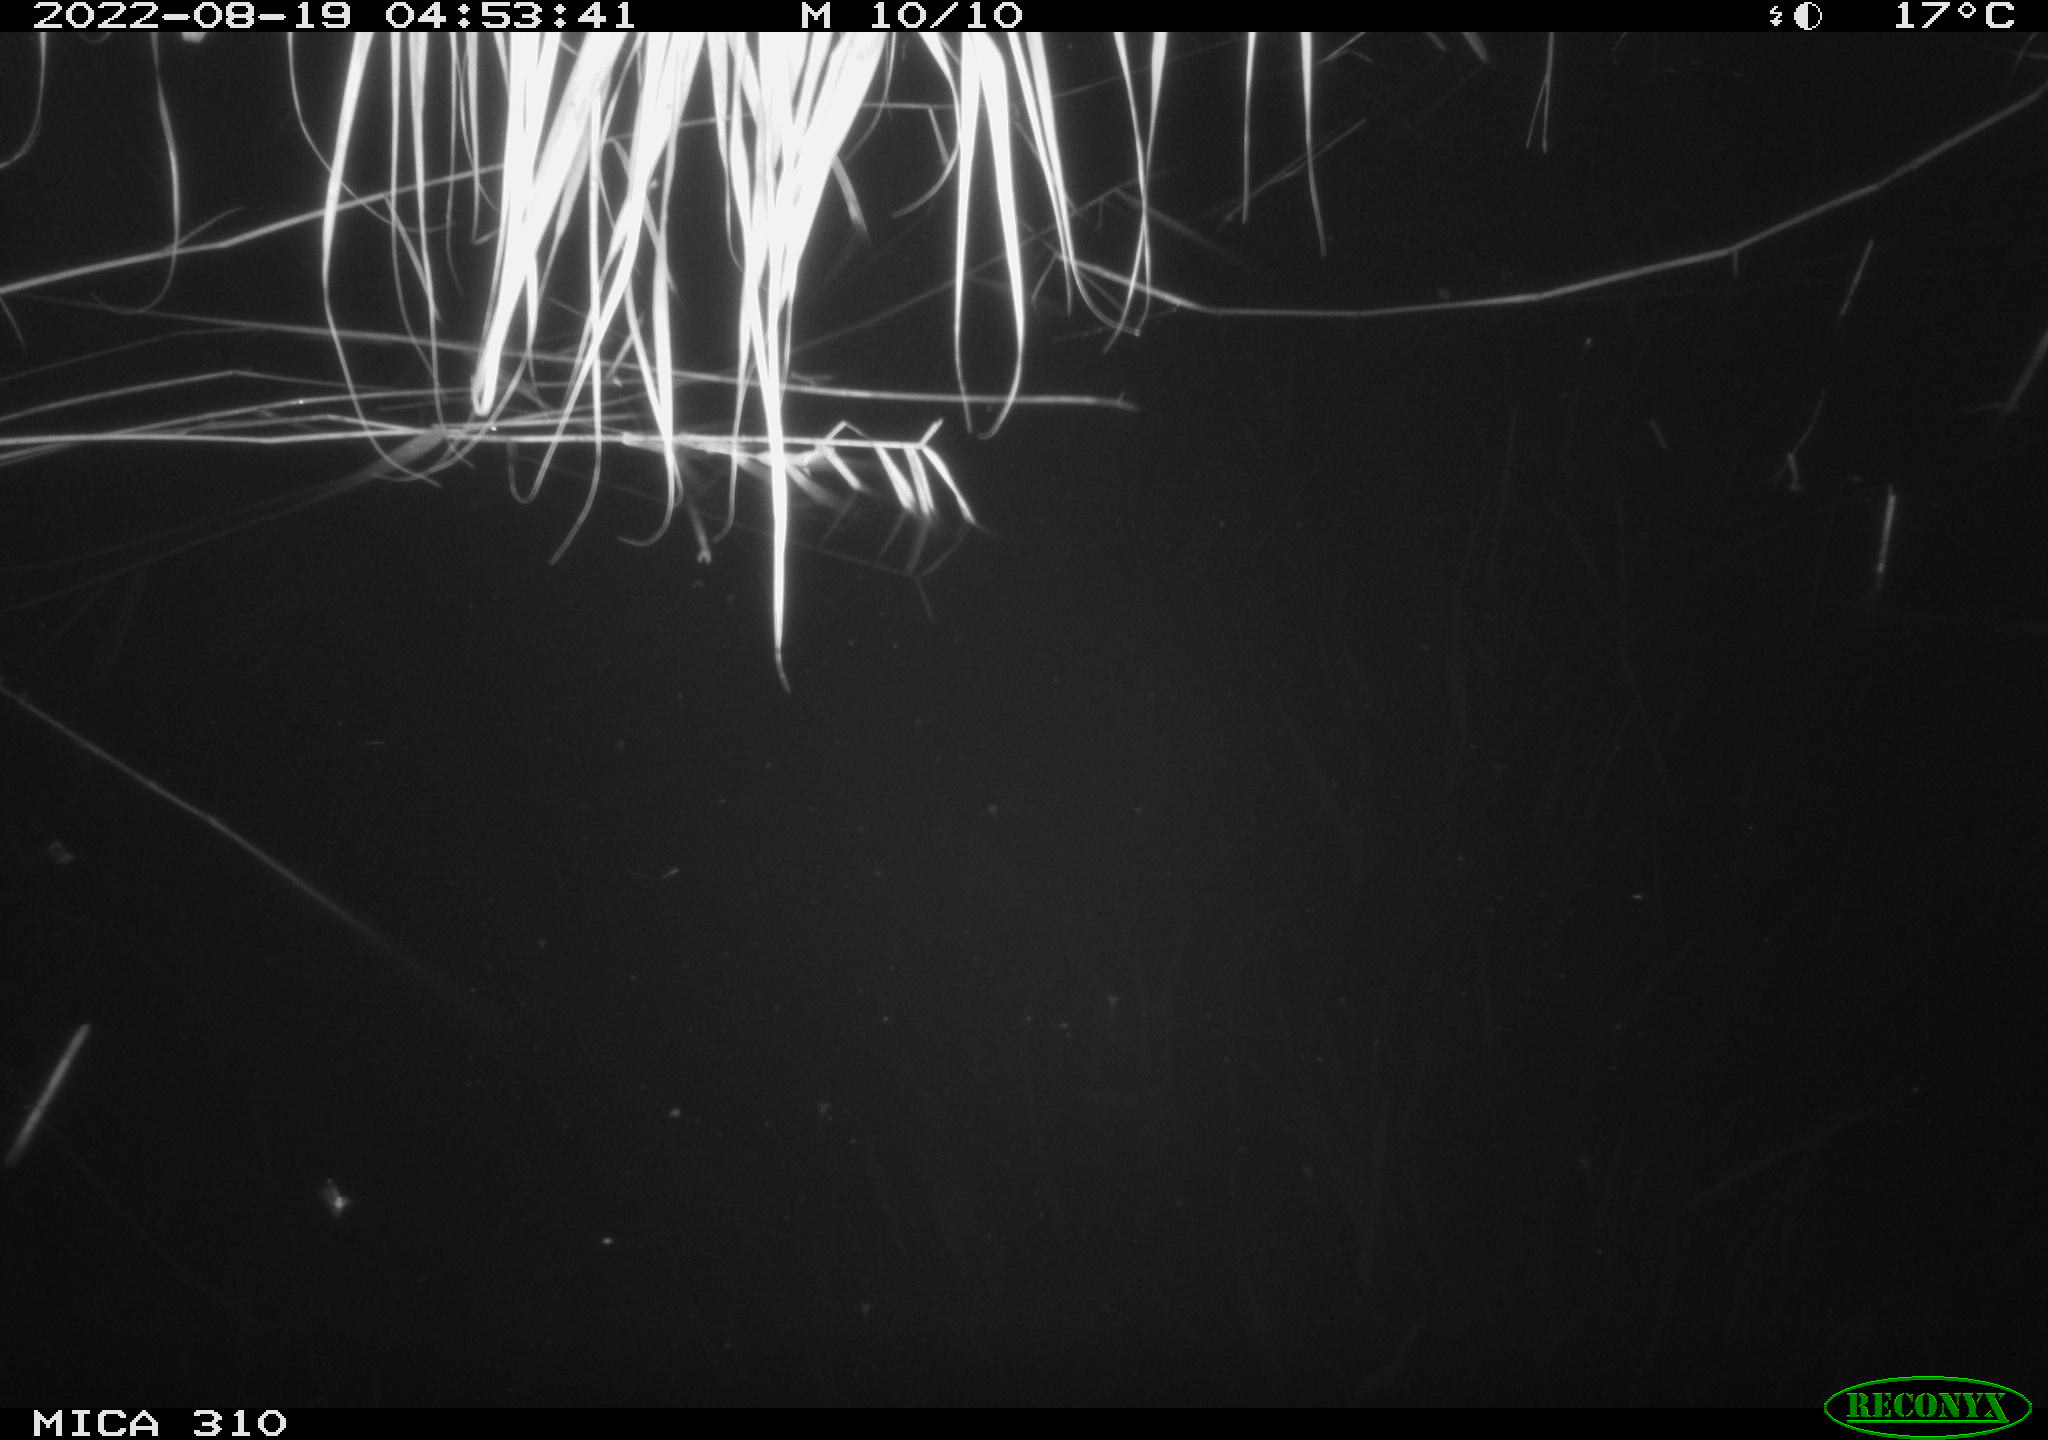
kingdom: Animalia
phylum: Chordata
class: Aves
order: Anseriformes
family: Anatidae
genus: Anas
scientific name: Anas platyrhynchos
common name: Mallard
